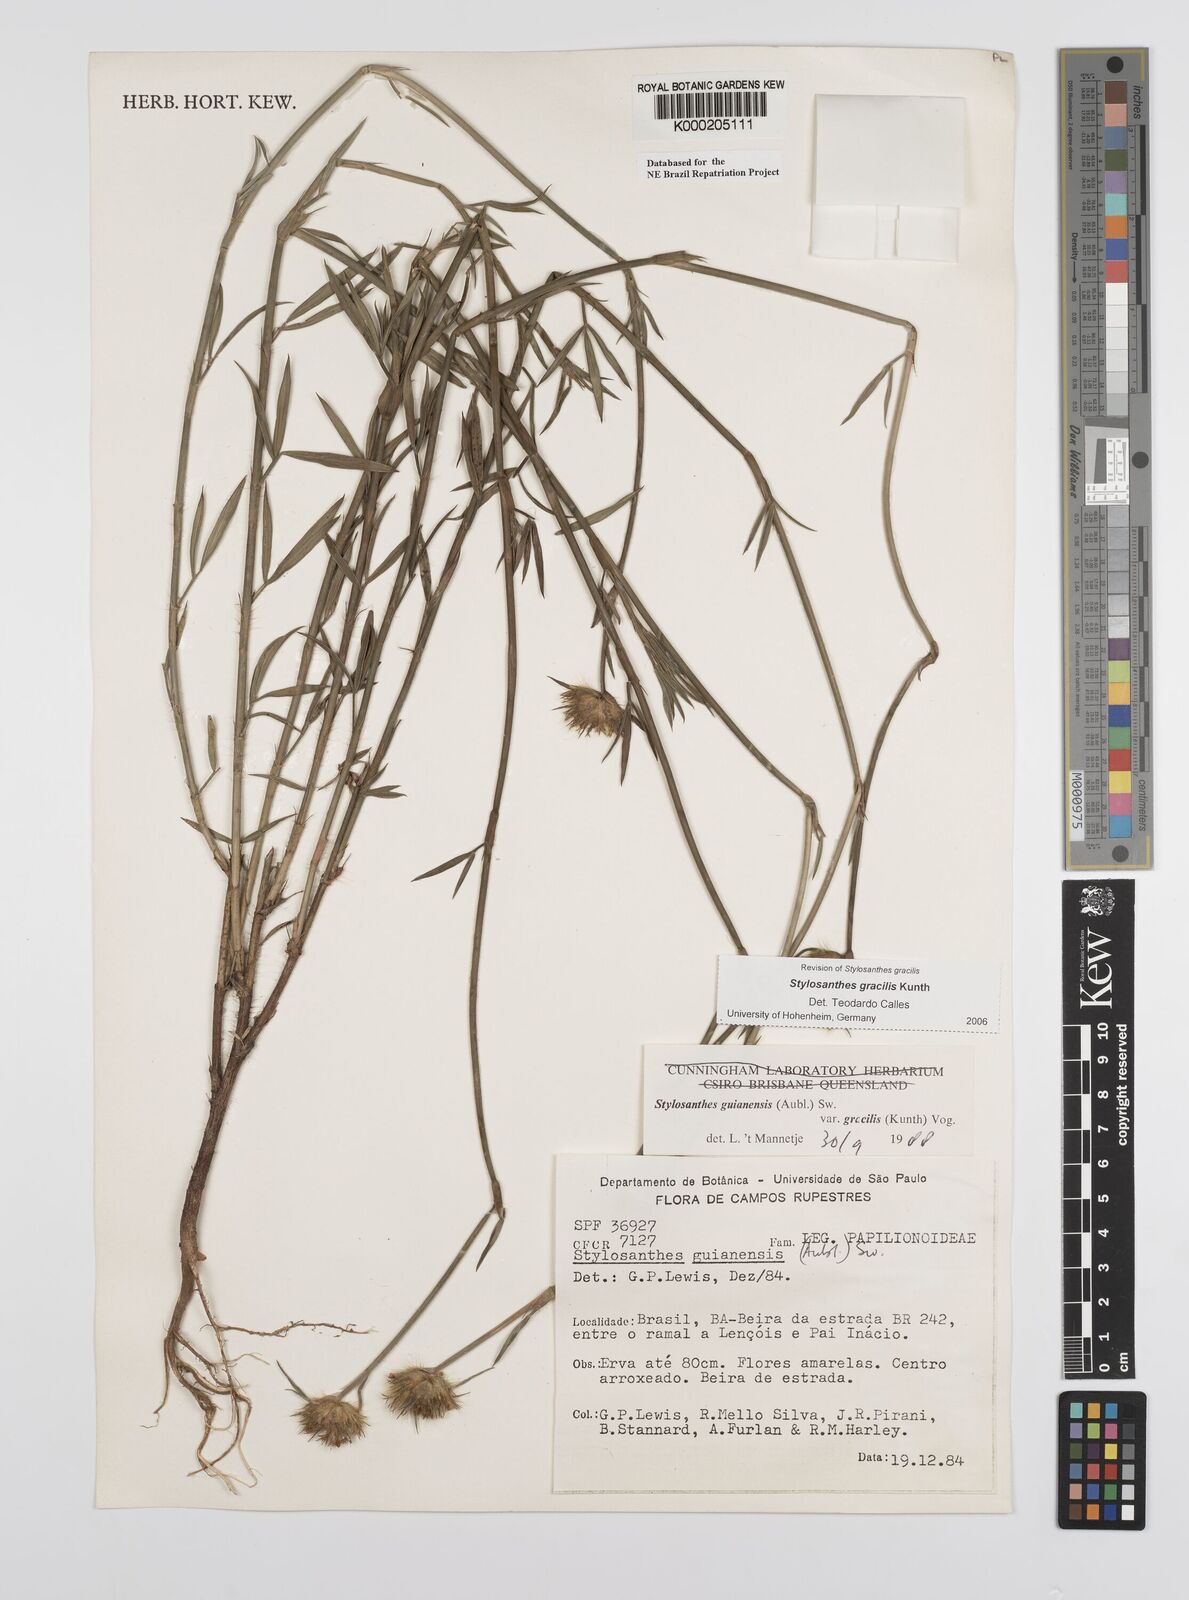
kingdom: Plantae
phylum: Tracheophyta
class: Magnoliopsida
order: Fabales
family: Fabaceae
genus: Stylosanthes
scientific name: Stylosanthes guianensis
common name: Pencil flower
